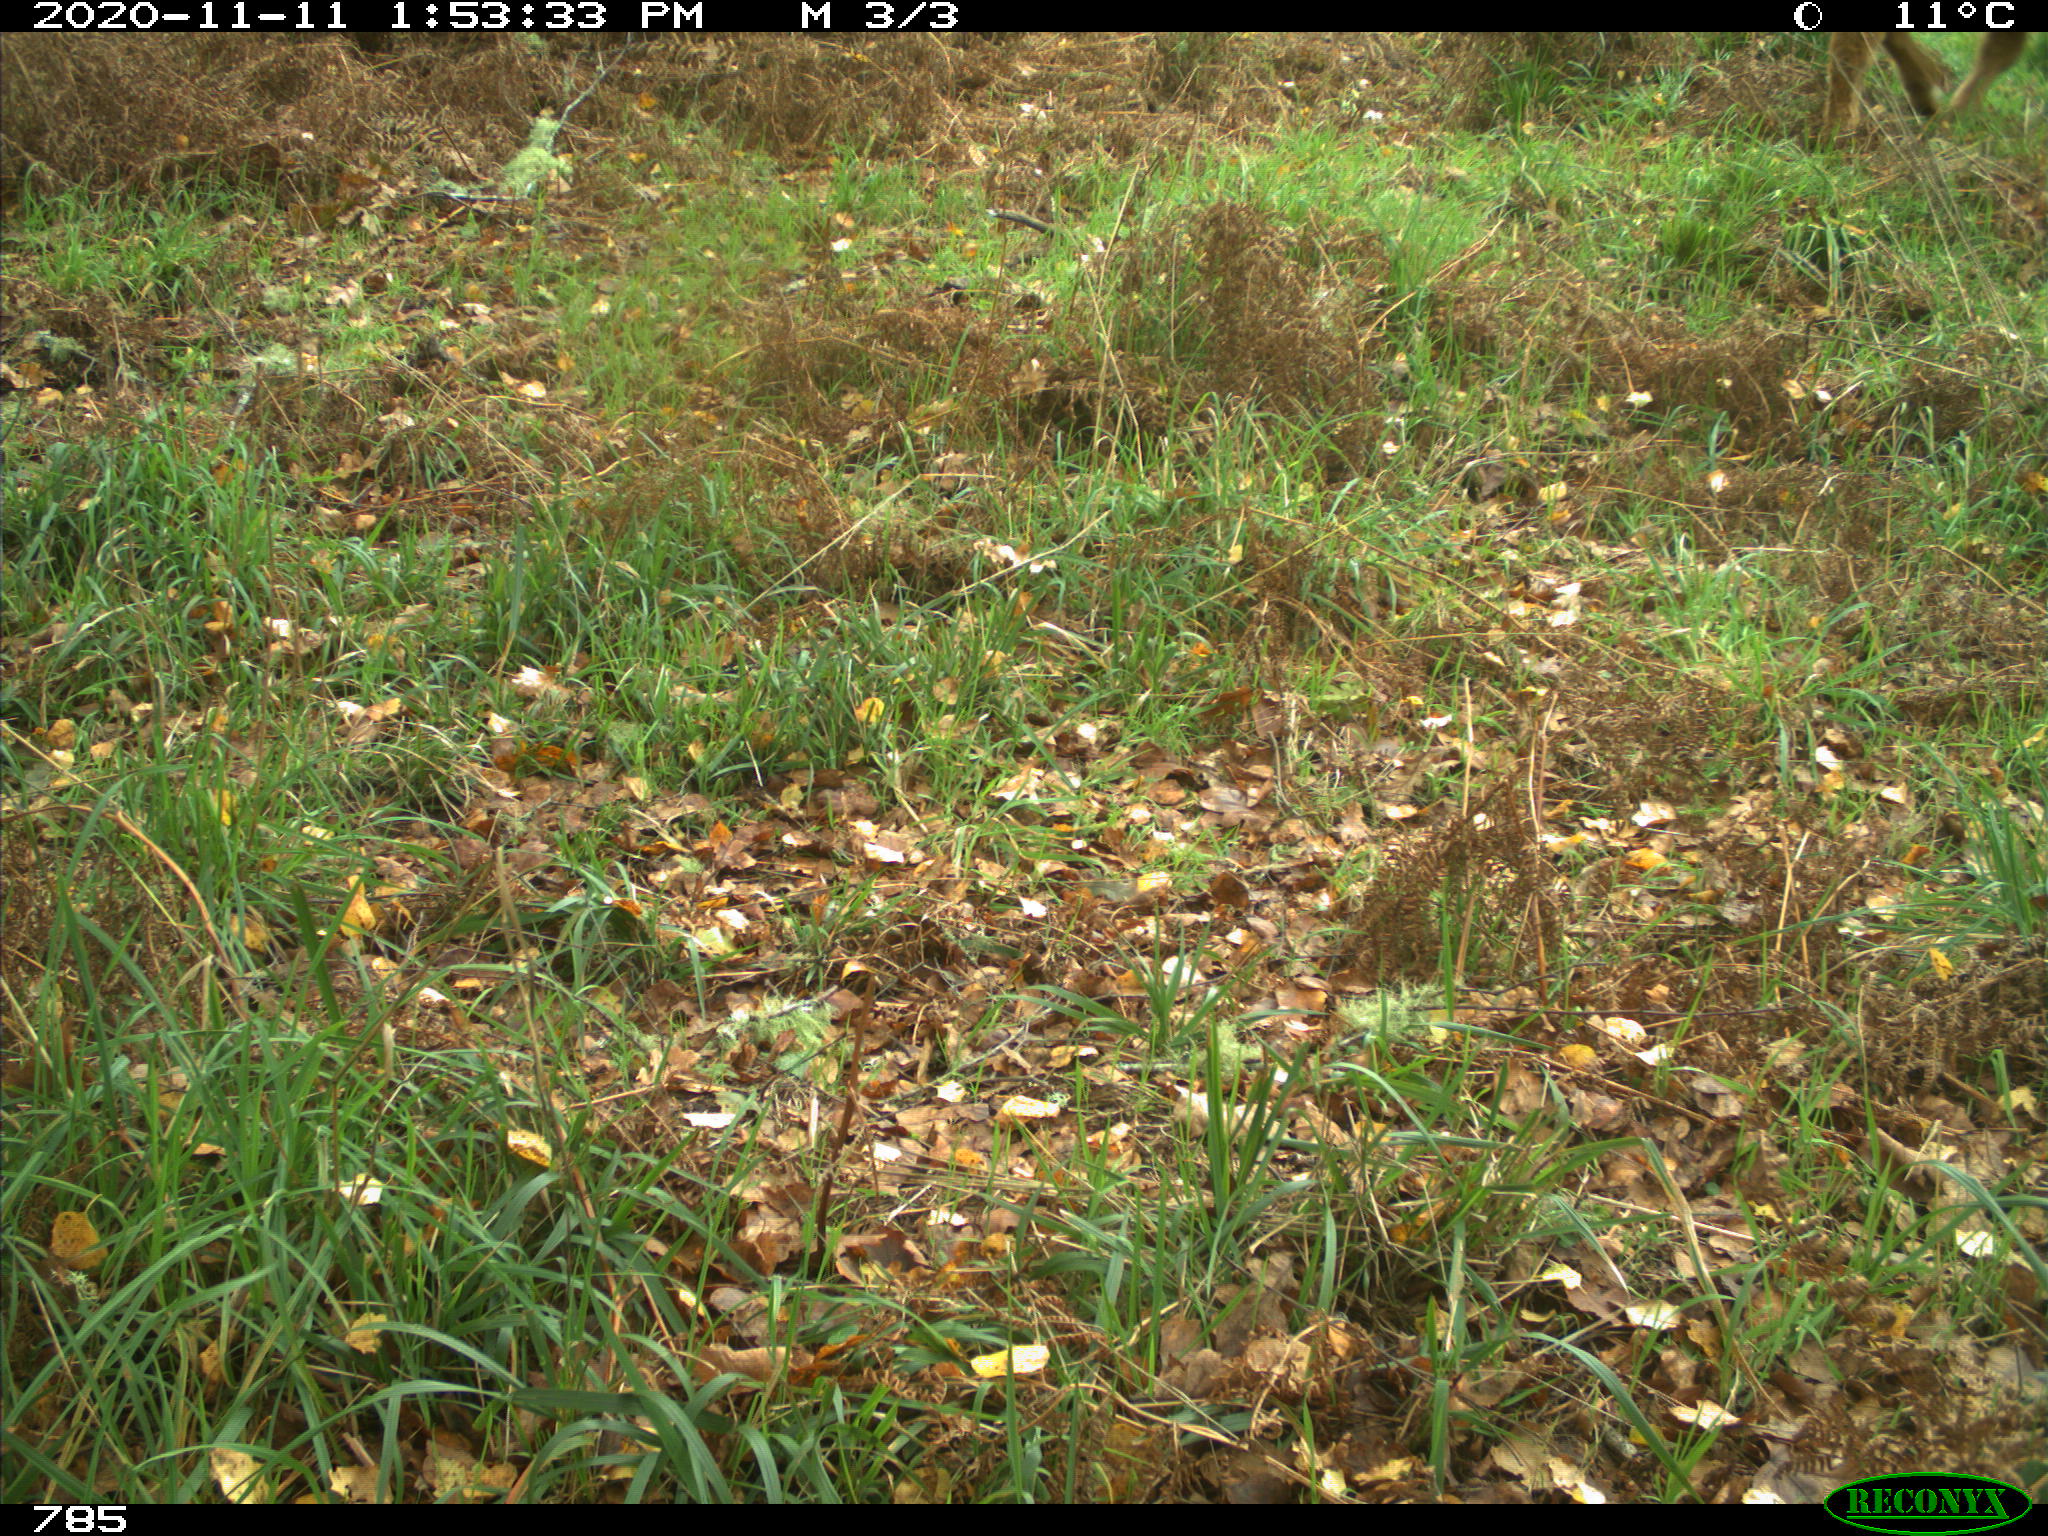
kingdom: Animalia
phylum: Chordata
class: Mammalia
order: Artiodactyla
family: Bovidae
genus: Bos
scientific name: Bos taurus
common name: Domesticated cattle
